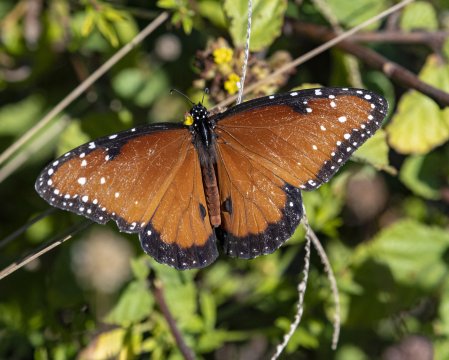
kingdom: Animalia
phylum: Arthropoda
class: Insecta
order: Lepidoptera
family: Nymphalidae
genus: Danaus
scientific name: Danaus gilippus
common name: Queen
